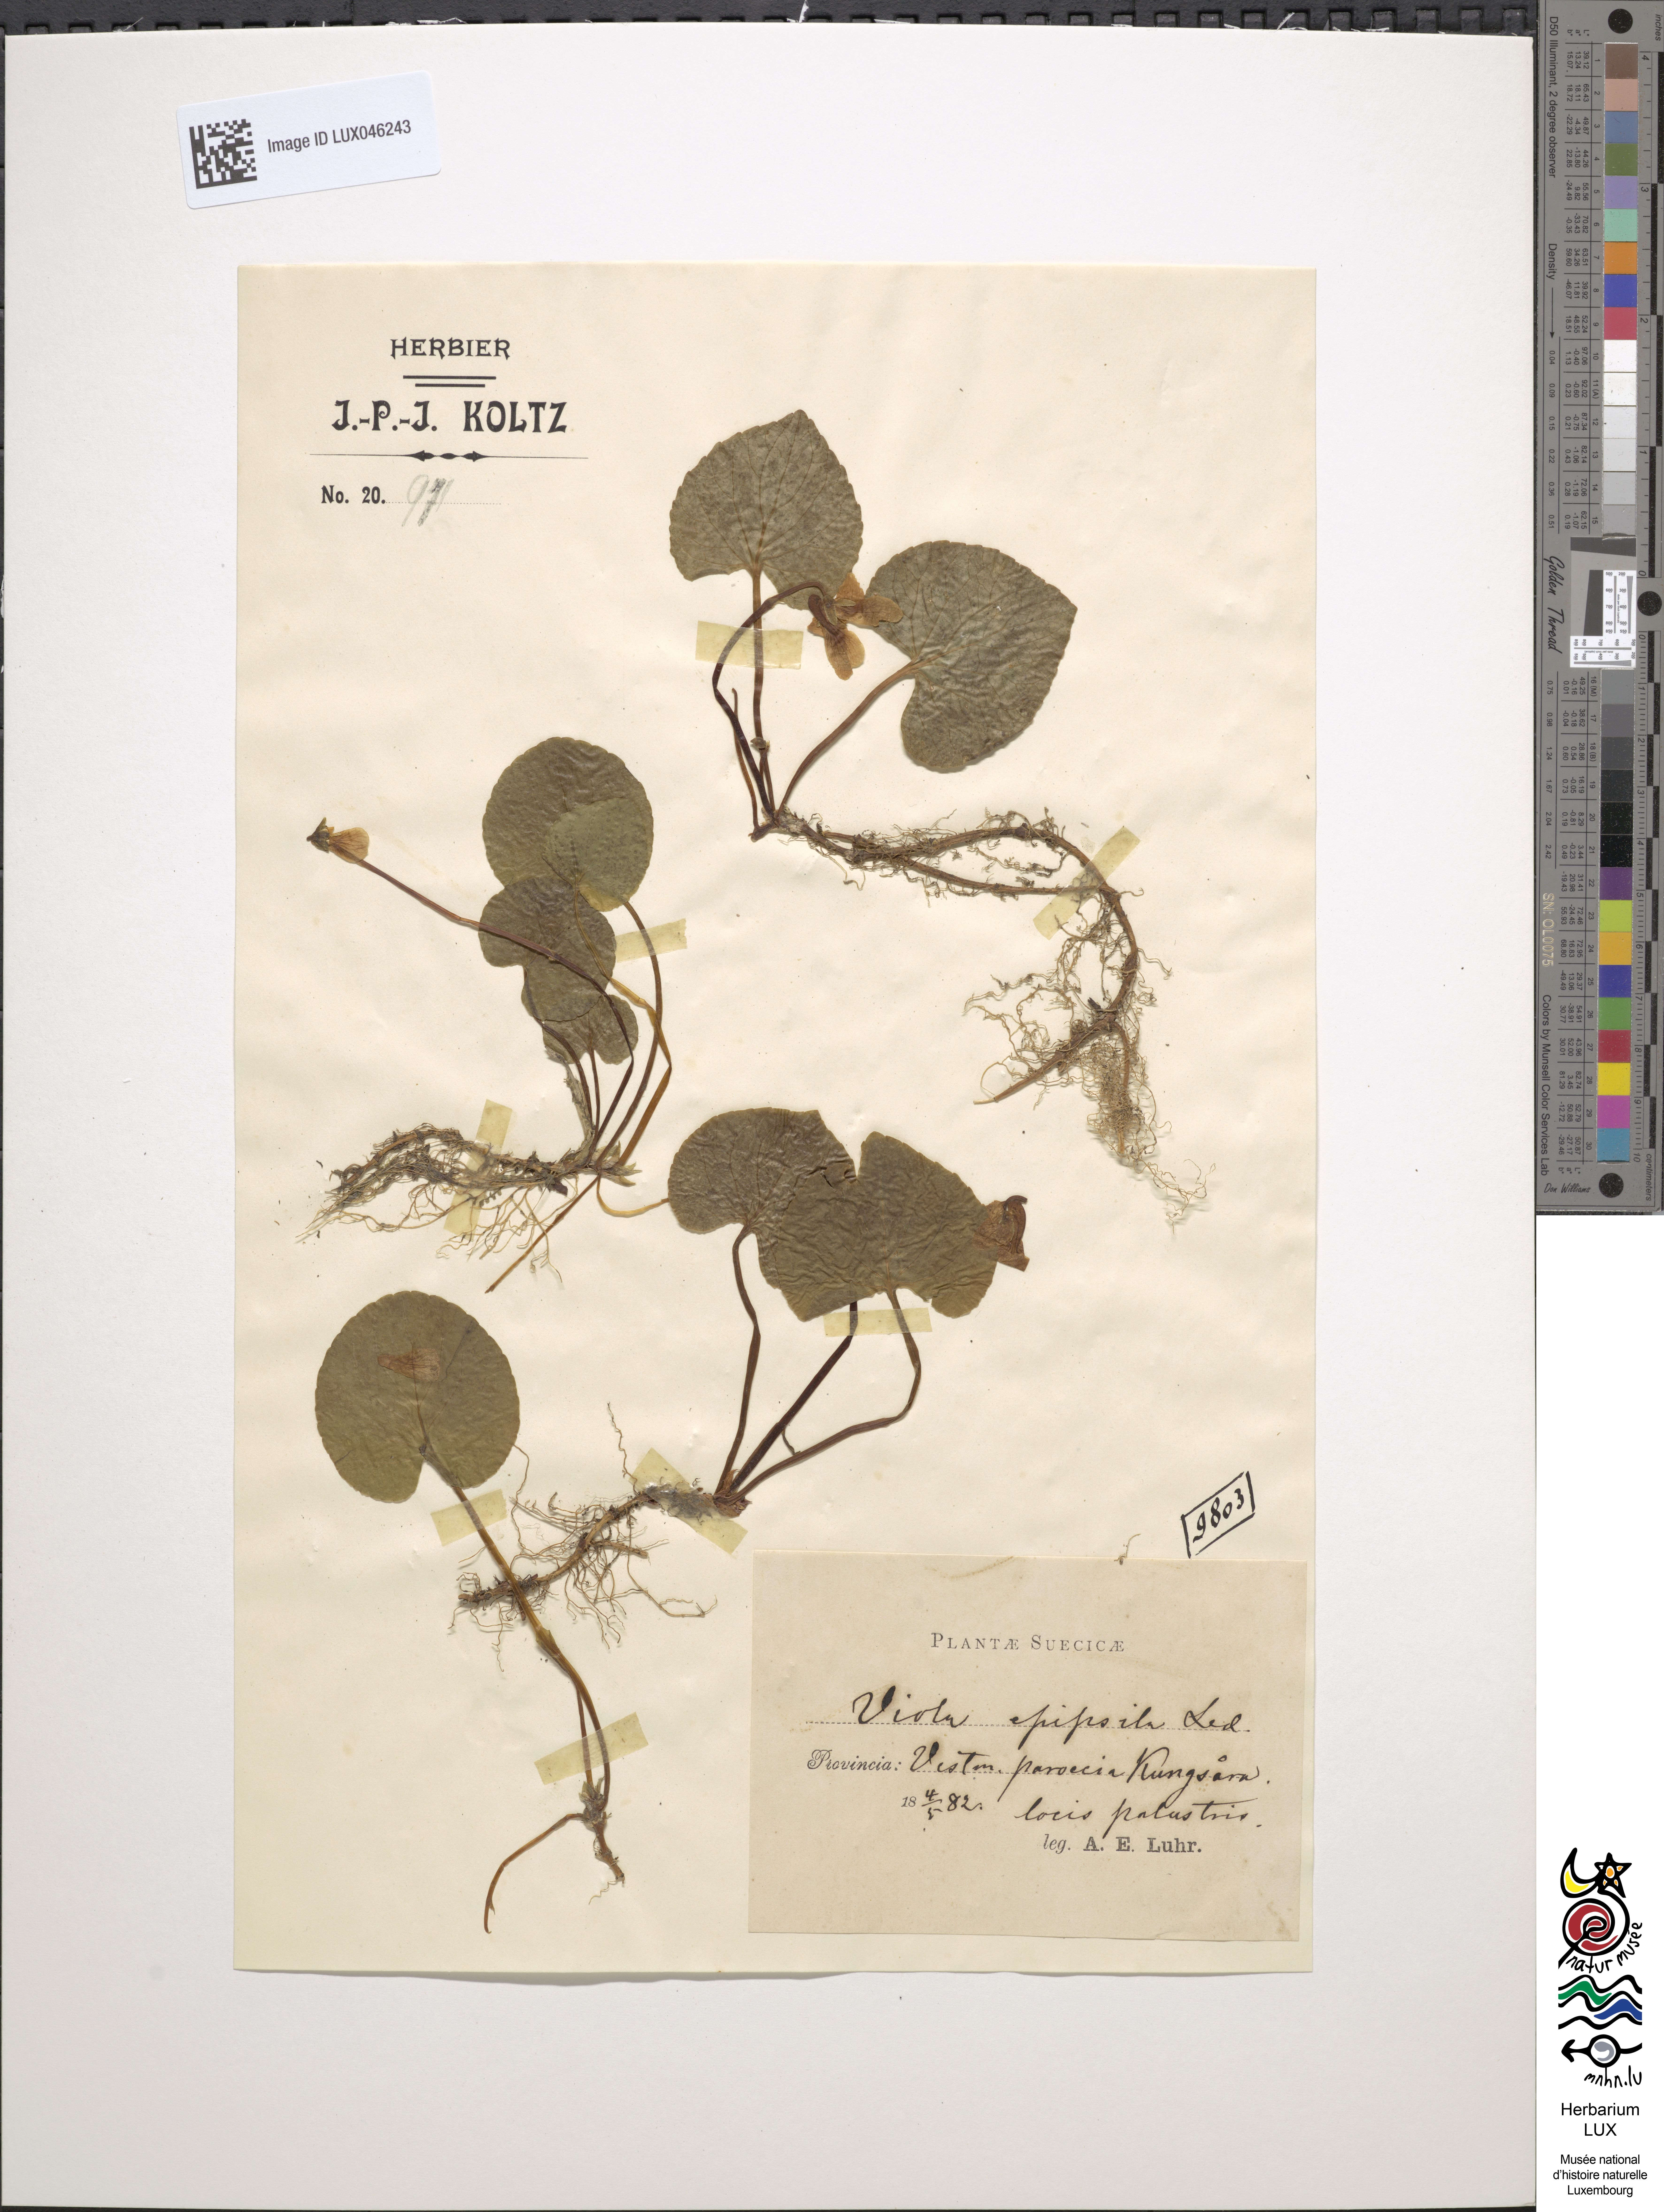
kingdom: Plantae
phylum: Tracheophyta
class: Magnoliopsida
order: Malpighiales
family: Violaceae
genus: Viola
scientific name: Viola epipsila
